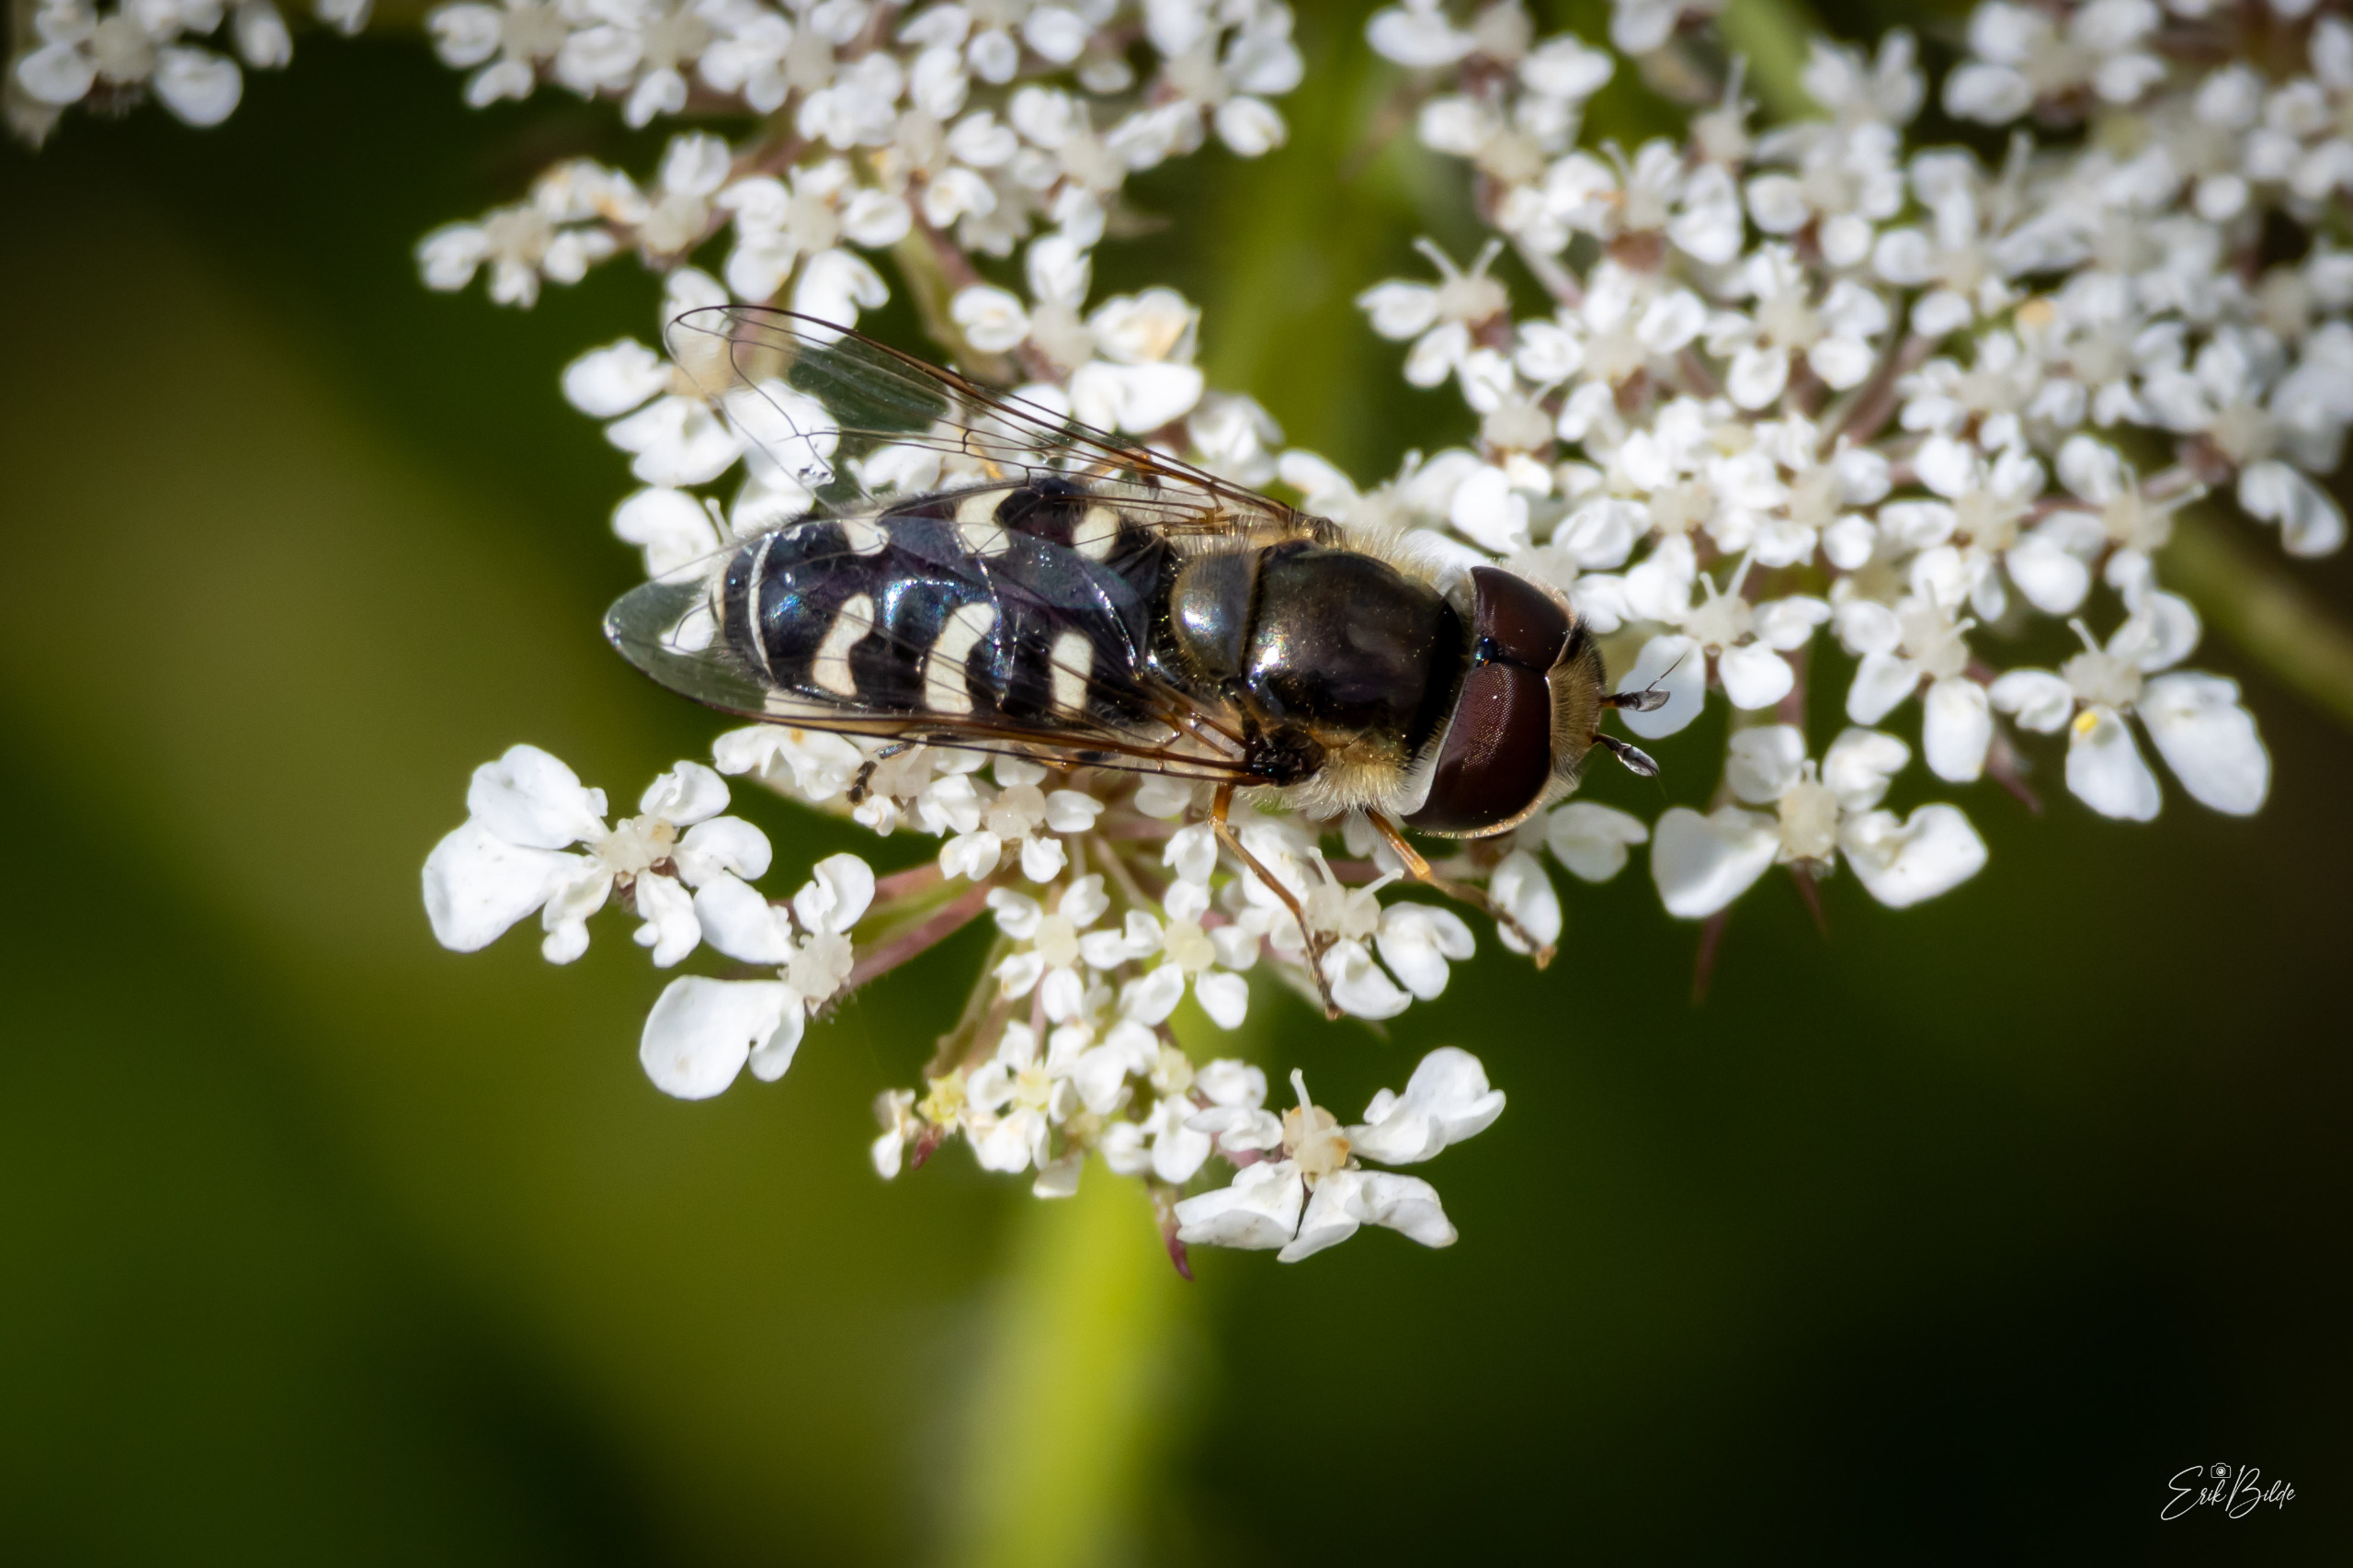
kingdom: Animalia
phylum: Arthropoda
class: Insecta
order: Diptera
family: Syrphidae
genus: Scaeva
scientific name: Scaeva pyrastri
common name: Hvidplettet agersvirreflue
